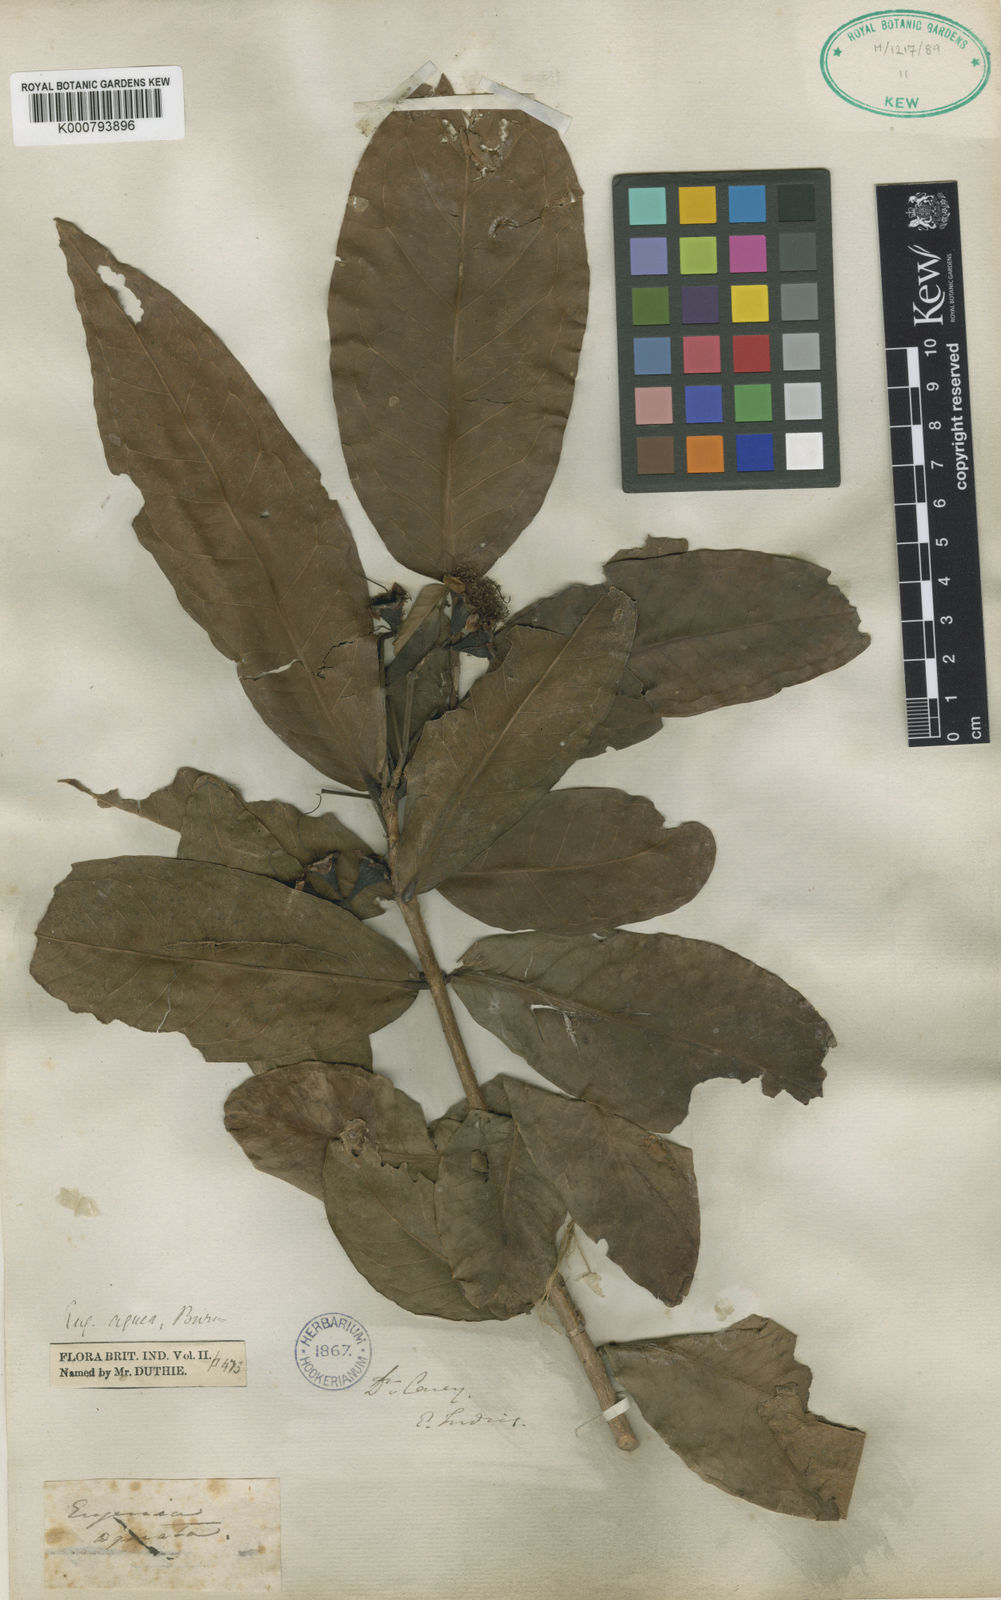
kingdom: Plantae
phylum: Tracheophyta
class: Magnoliopsida
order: Myrtales
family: Myrtaceae
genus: Syzygium
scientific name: Syzygium aqueum
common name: Water-apple
